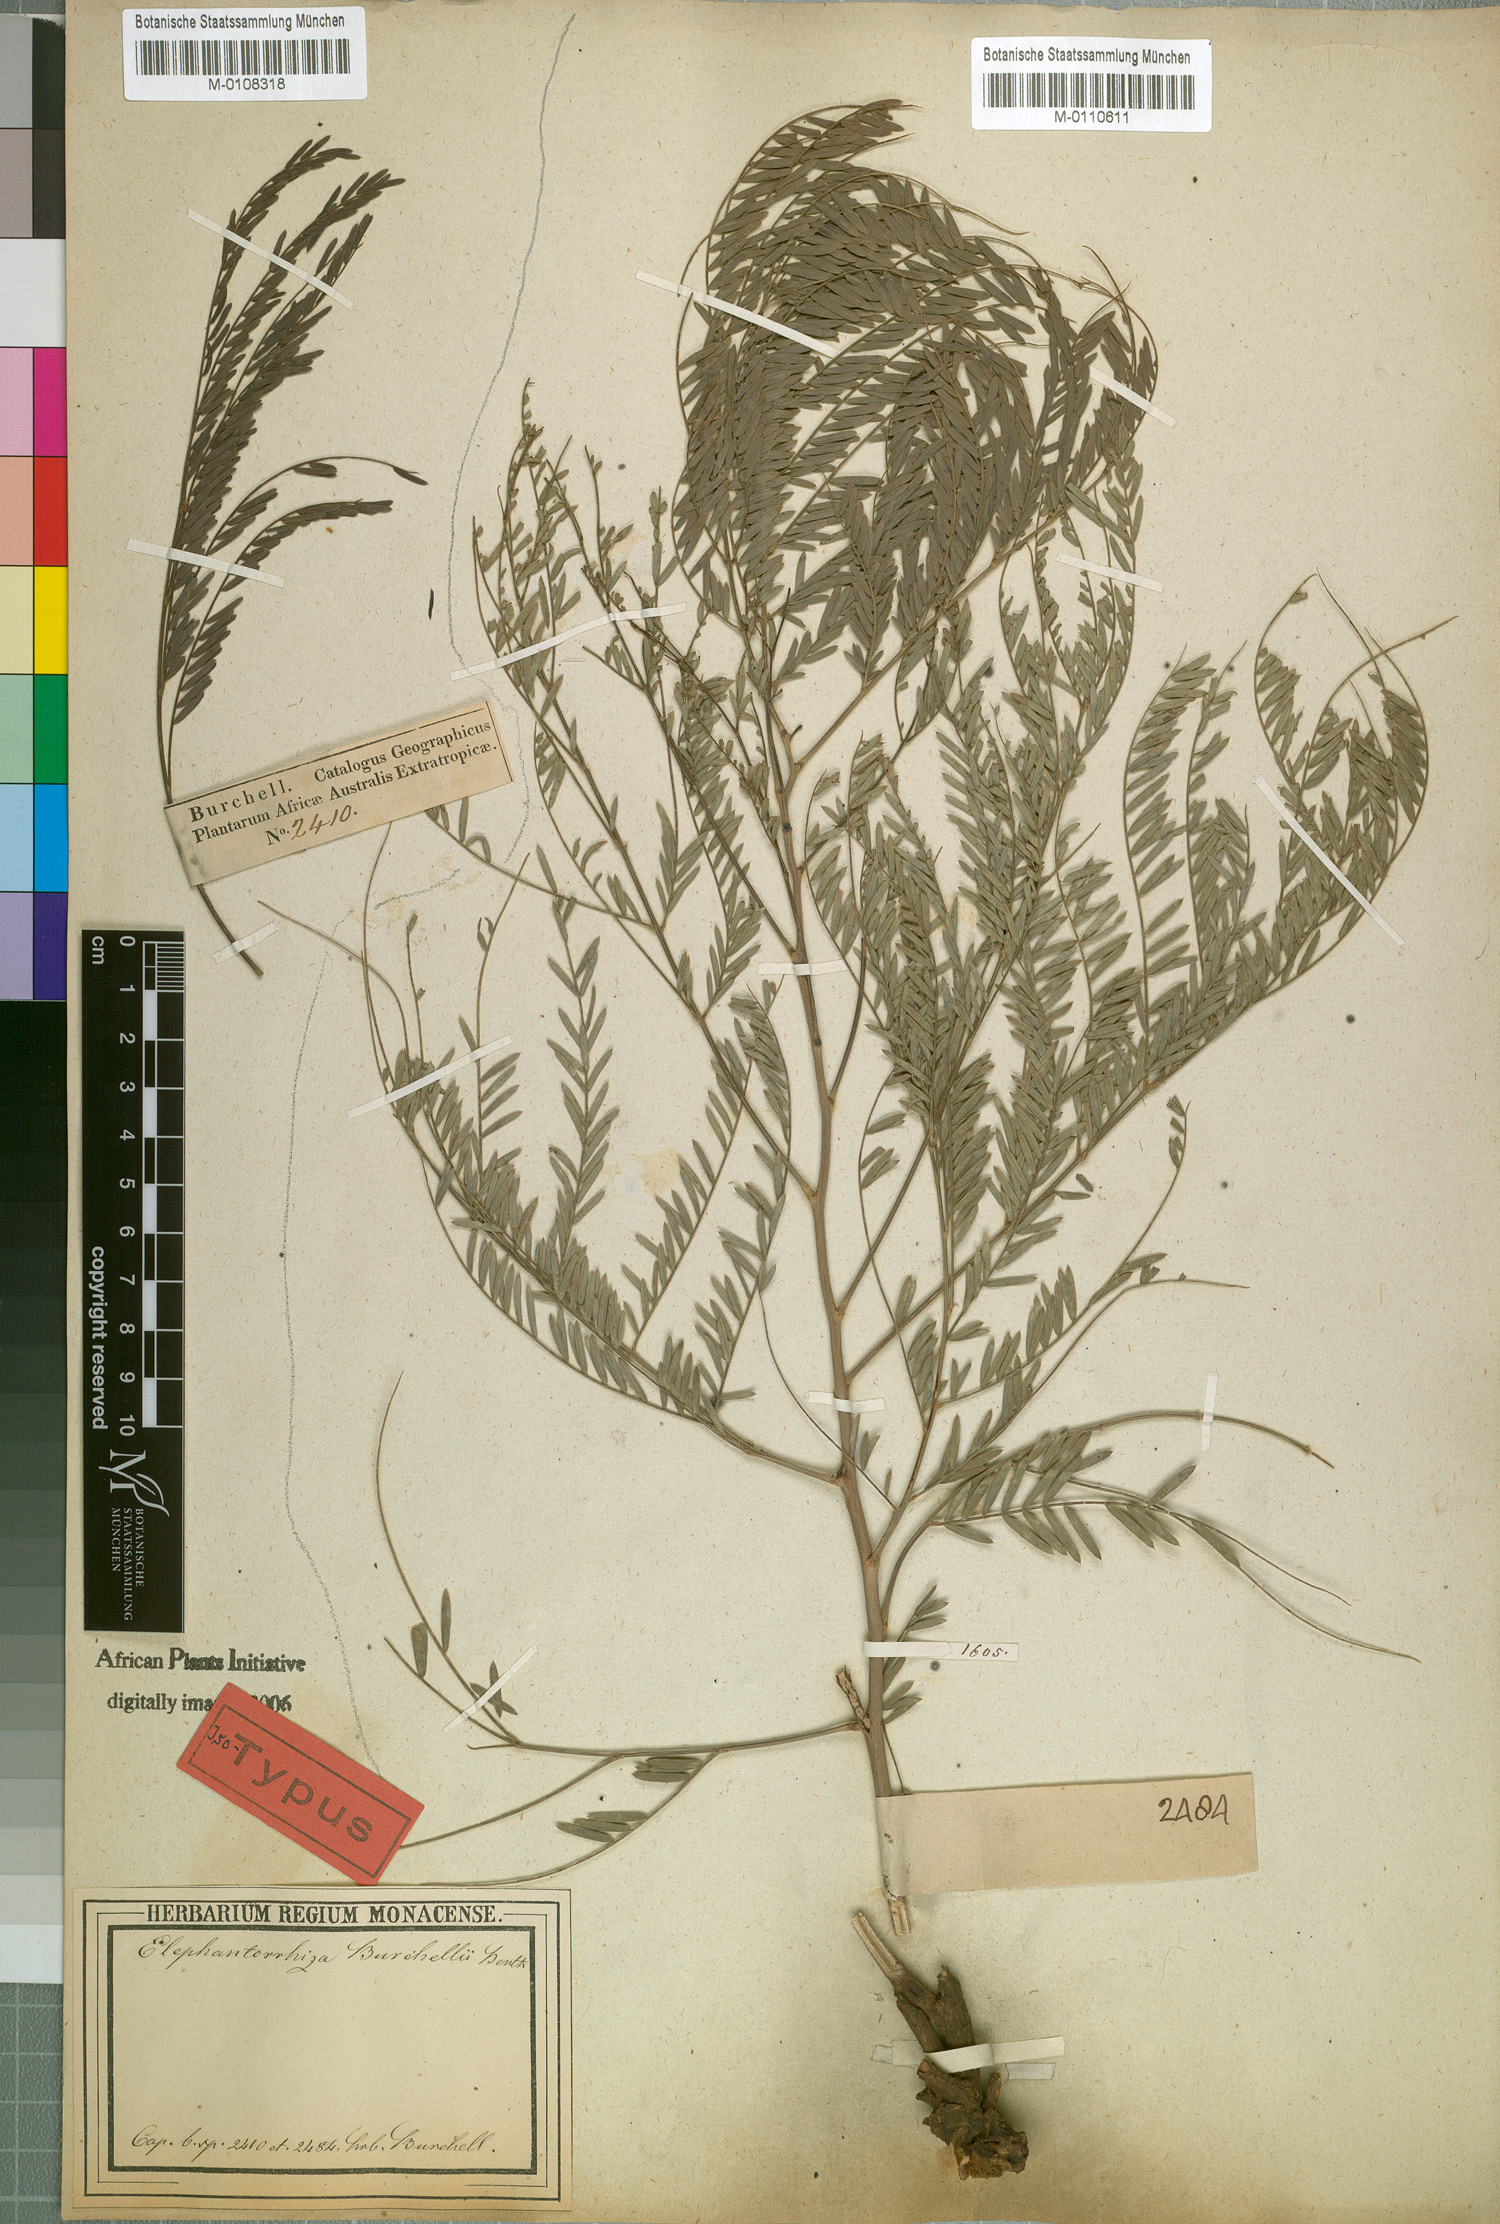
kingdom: Plantae
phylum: Tracheophyta
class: Magnoliopsida
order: Fabales
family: Fabaceae
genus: Elephantorrhiza
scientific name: Elephantorrhiza elephantina
